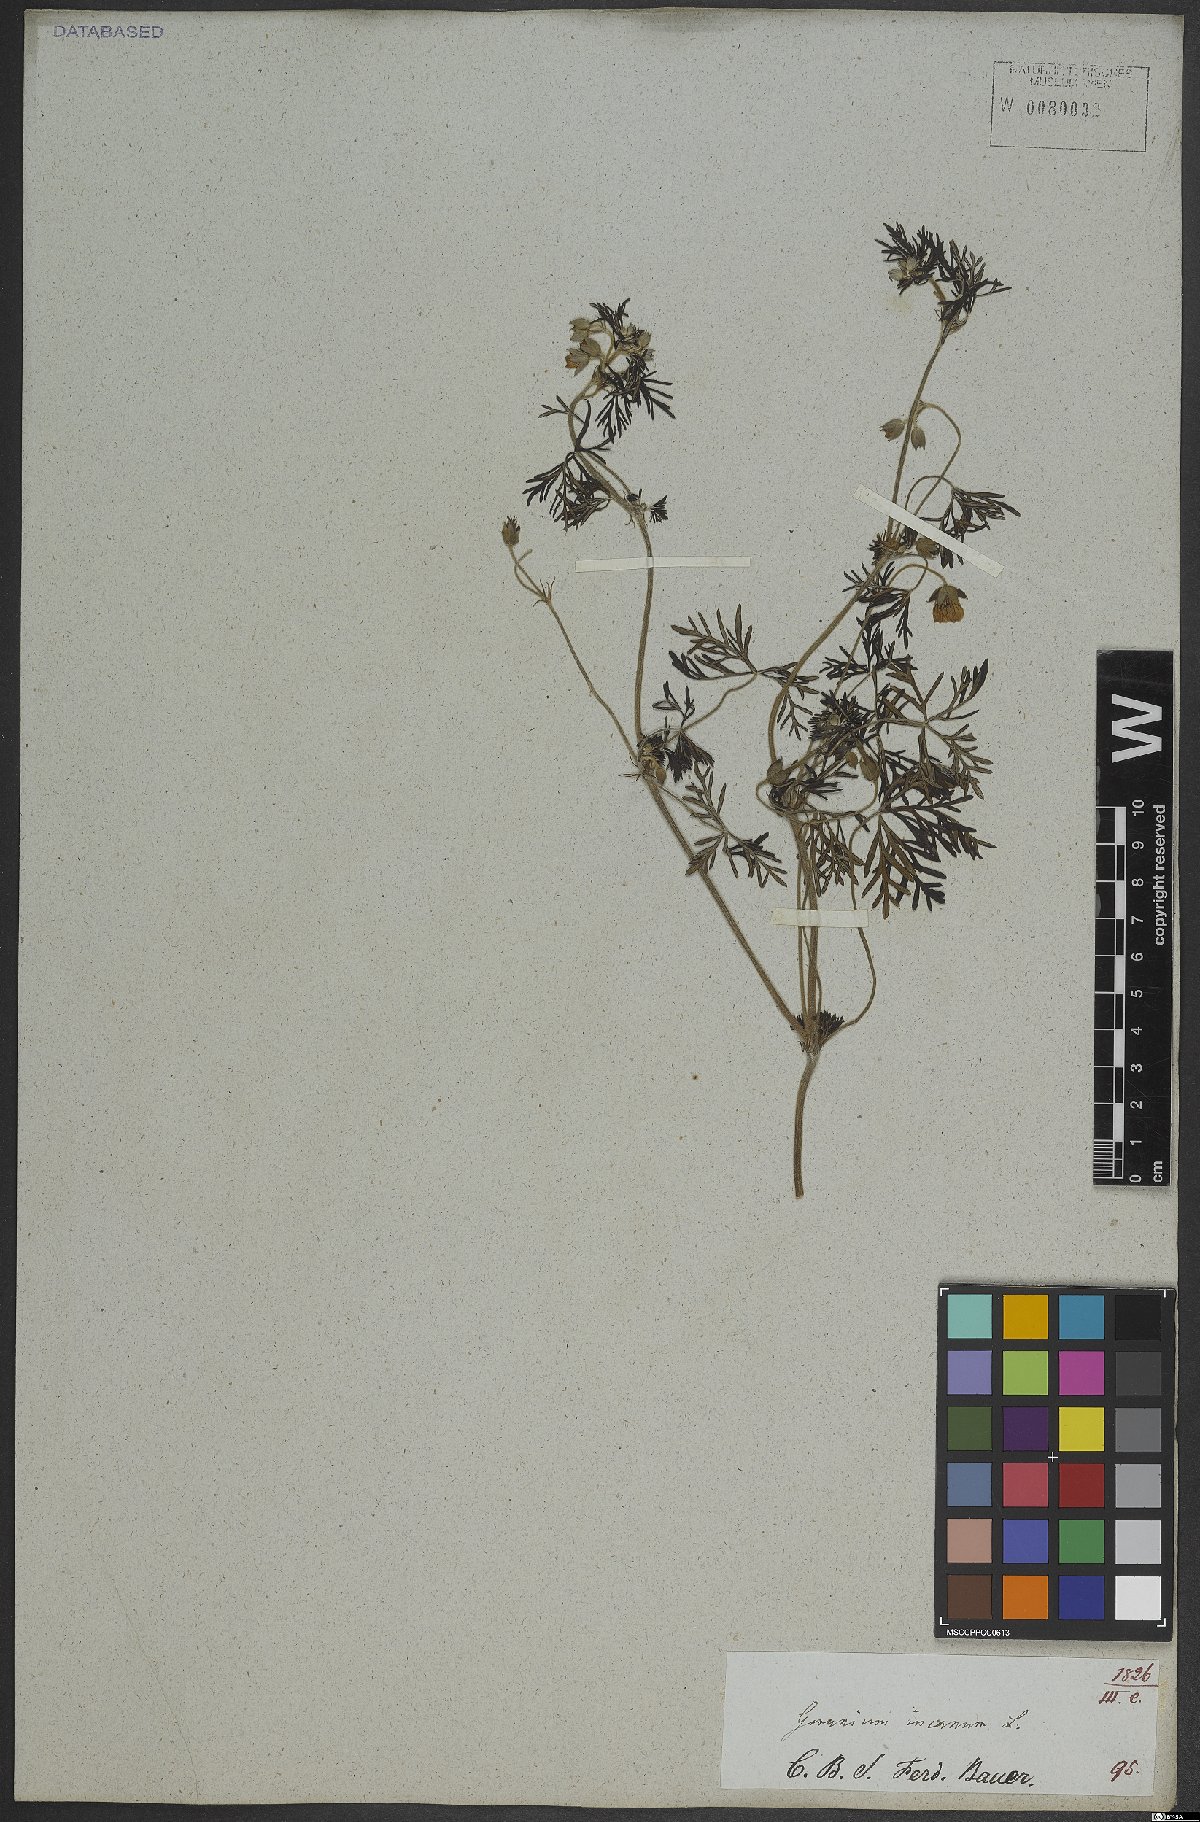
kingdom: Plantae
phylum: Tracheophyta
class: Magnoliopsida
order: Geraniales
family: Geraniaceae
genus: Geranium
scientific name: Geranium incanum
